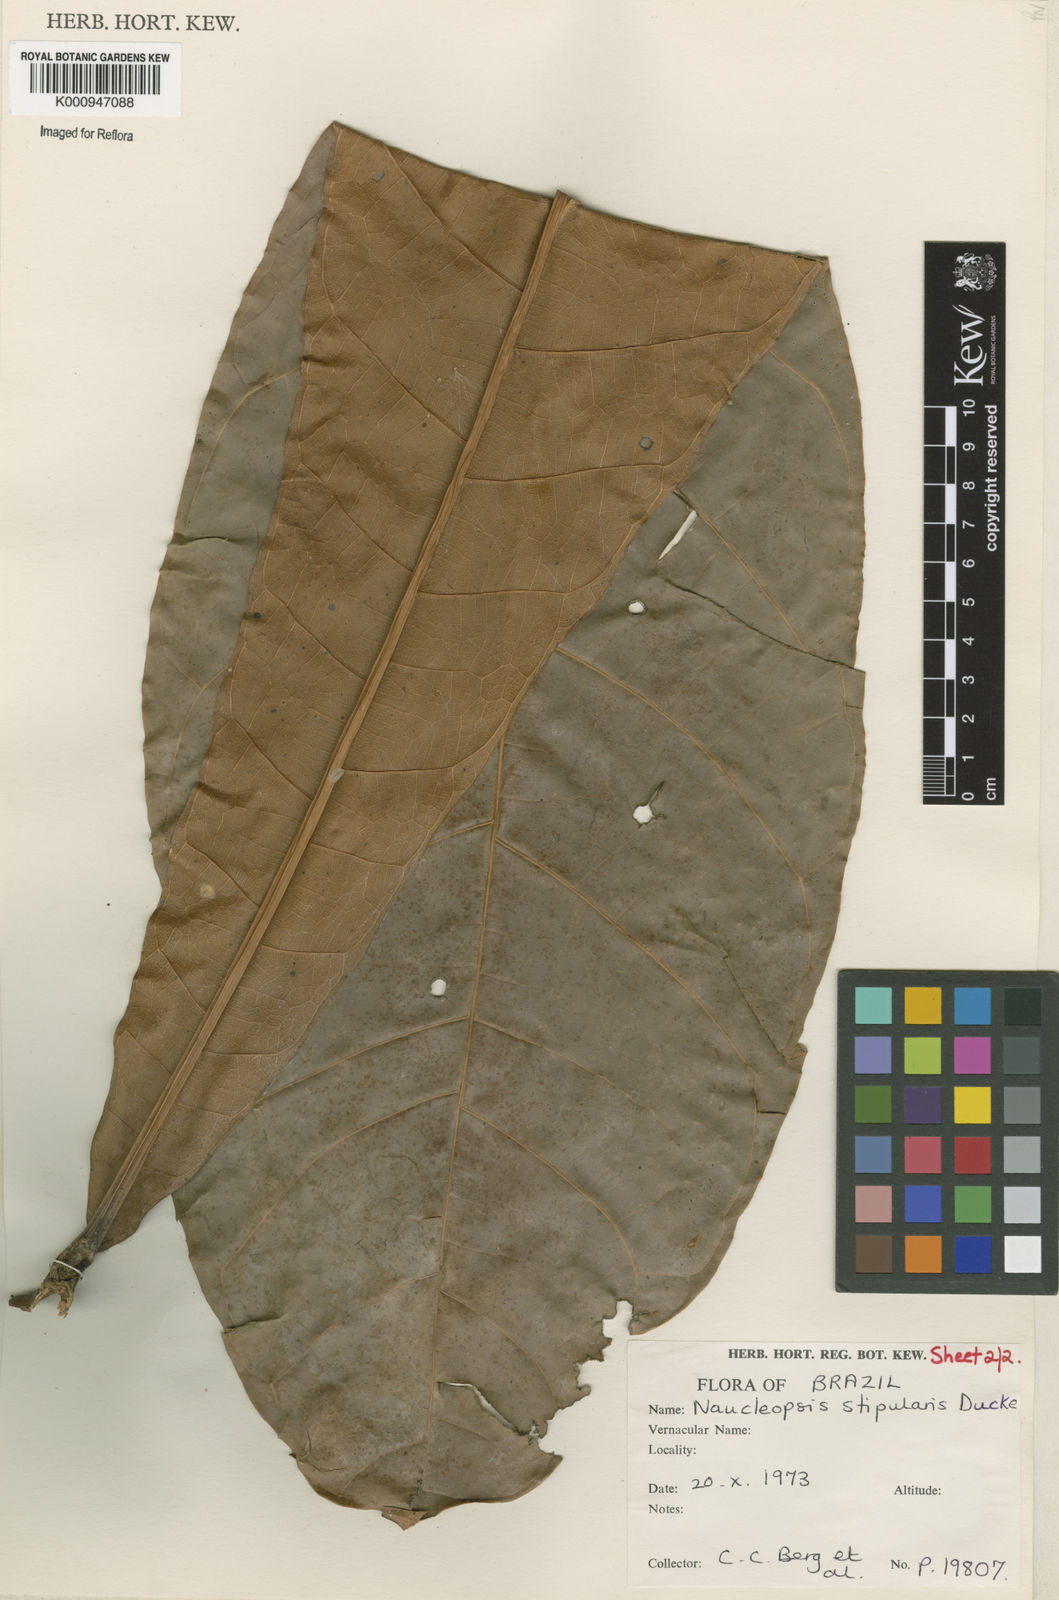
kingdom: Plantae
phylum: Tracheophyta
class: Magnoliopsida
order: Rosales
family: Moraceae
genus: Naucleopsis
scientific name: Naucleopsis stipularis
